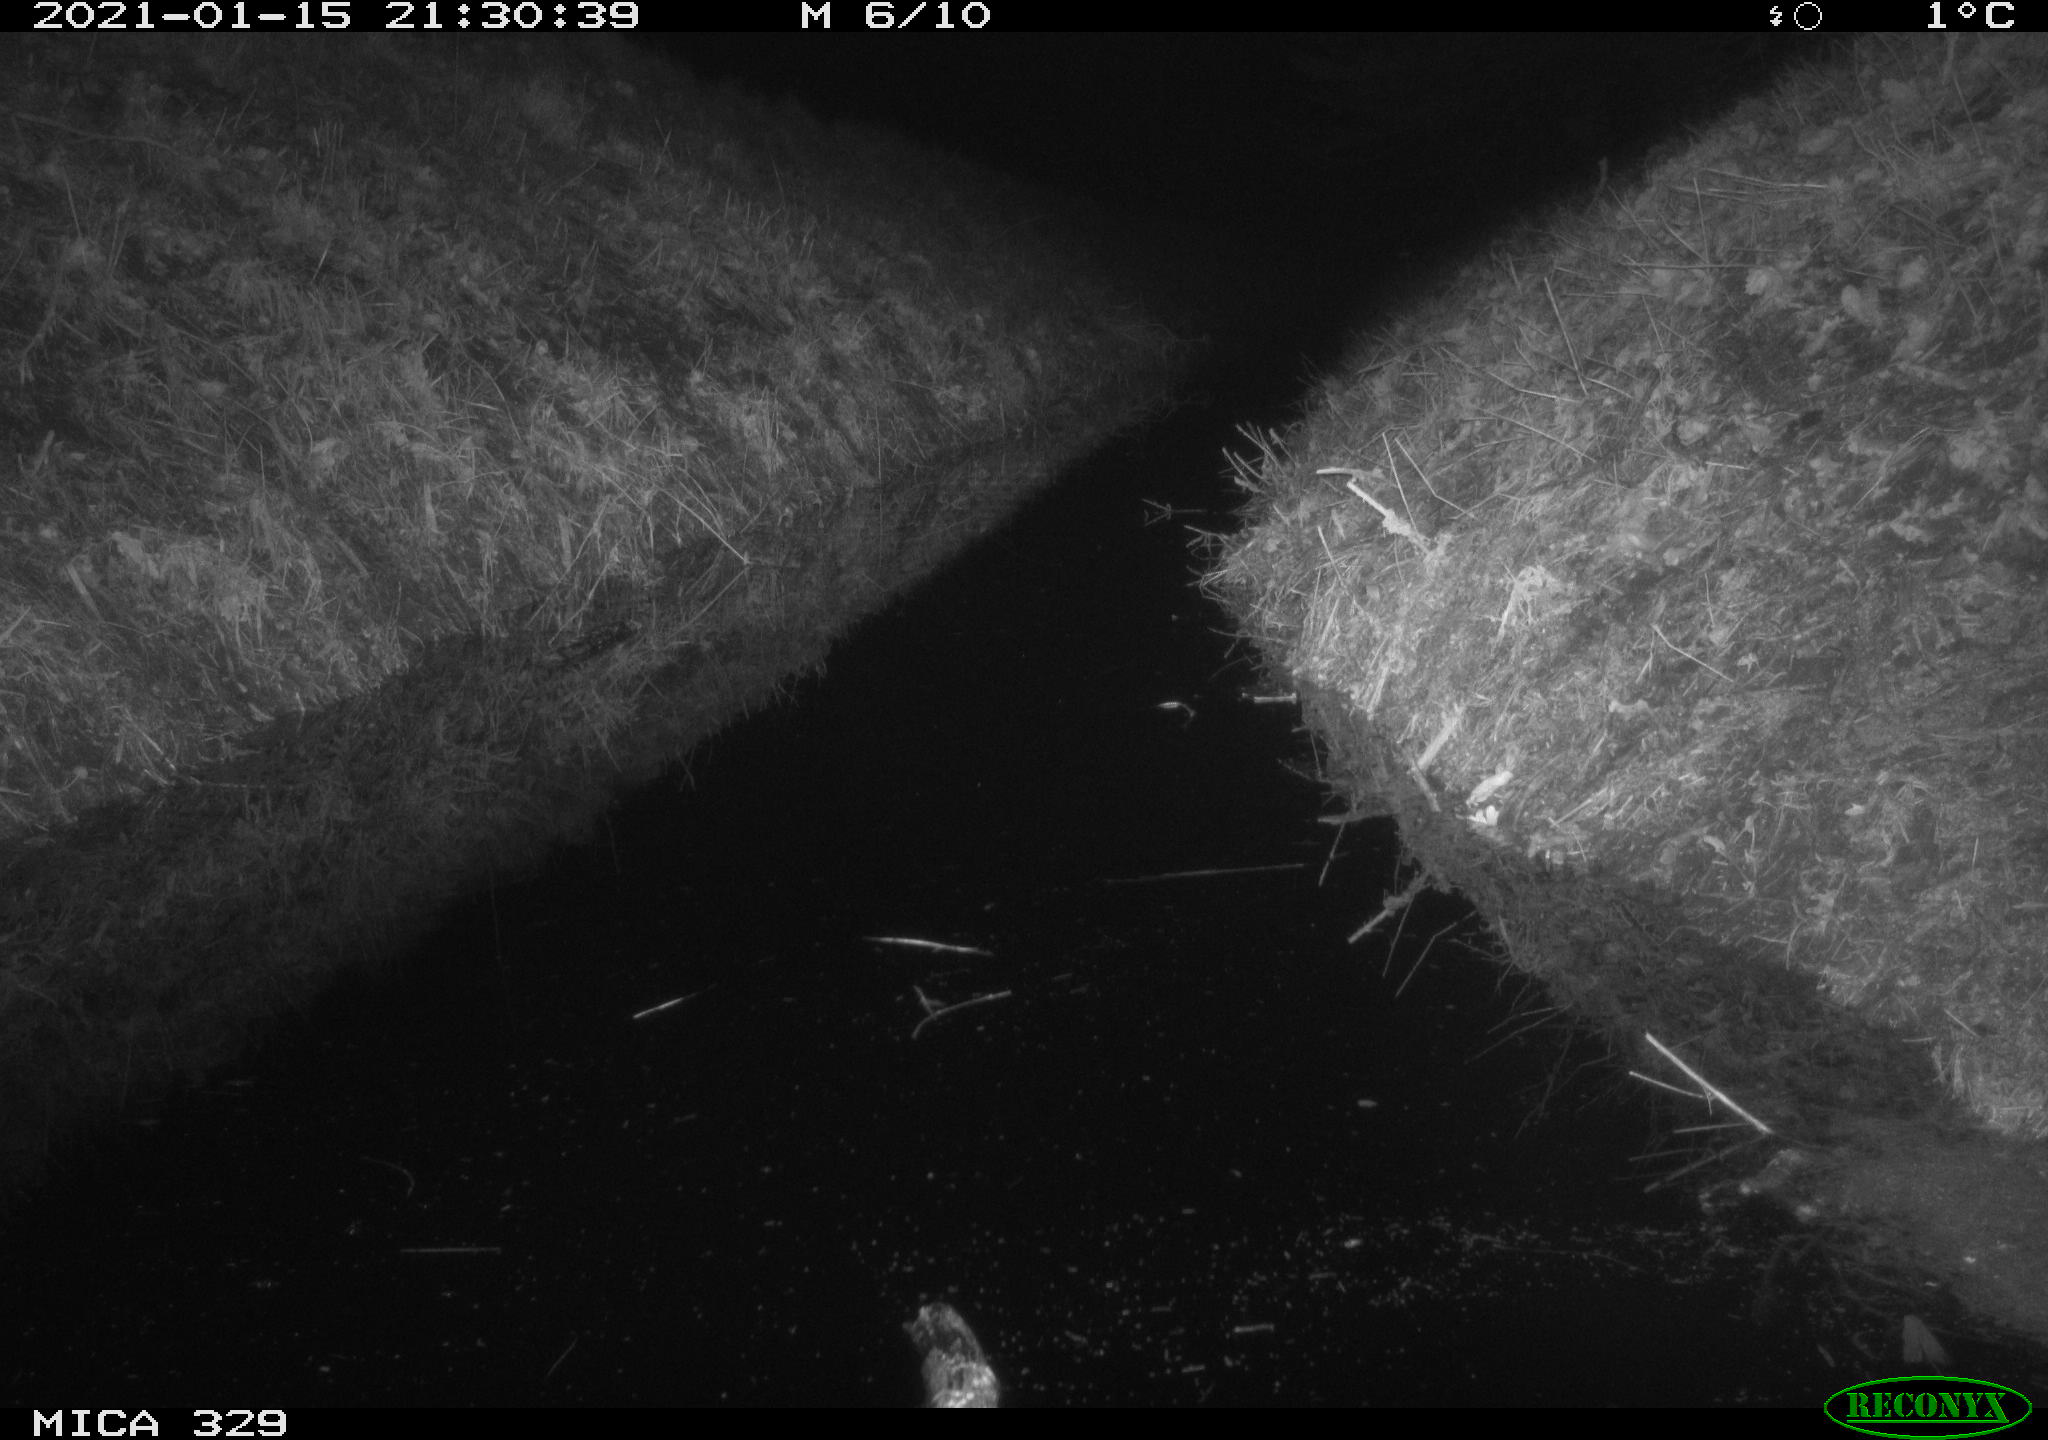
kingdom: Animalia
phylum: Chordata
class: Mammalia
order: Rodentia
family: Muridae
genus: Rattus
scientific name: Rattus norvegicus
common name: Brown rat
